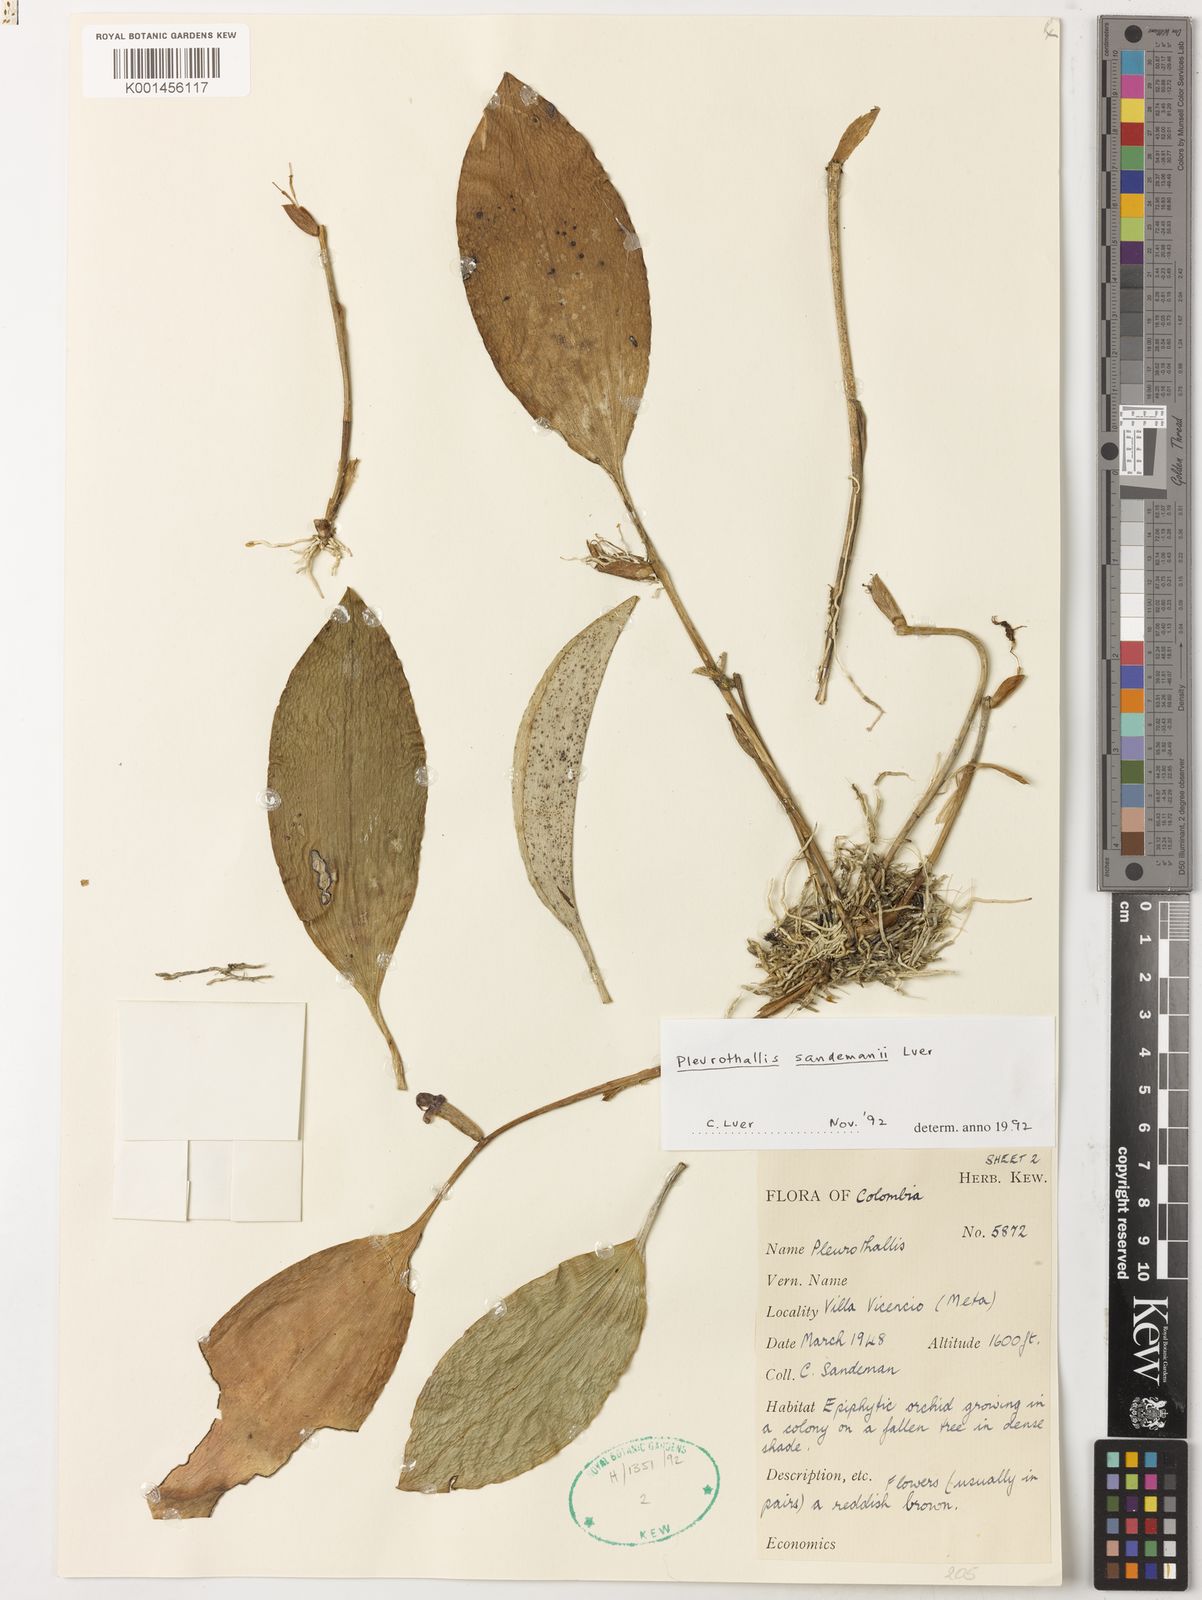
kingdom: Plantae
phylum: Tracheophyta
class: Liliopsida
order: Asparagales
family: Orchidaceae
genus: Pleurothallis
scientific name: Pleurothallis
